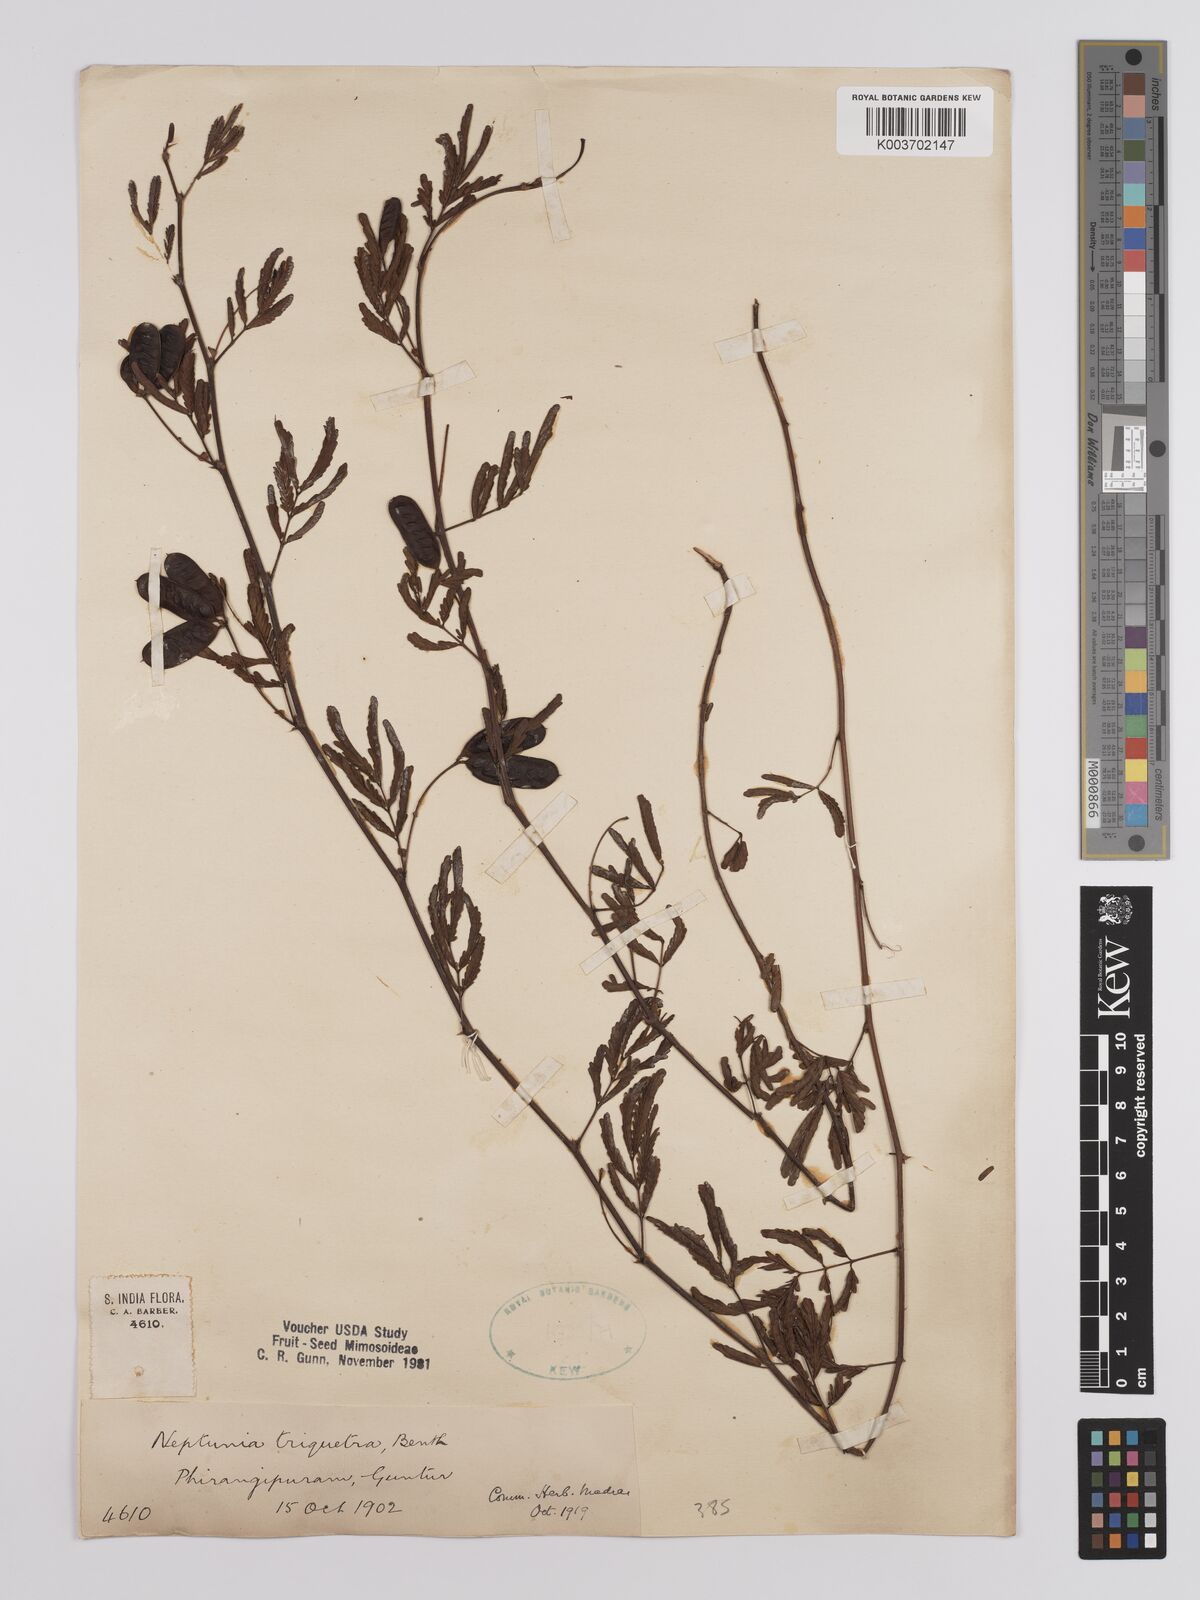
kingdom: Plantae
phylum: Tracheophyta
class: Magnoliopsida
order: Fabales
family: Fabaceae
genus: Neptunia
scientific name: Neptunia triquetra
